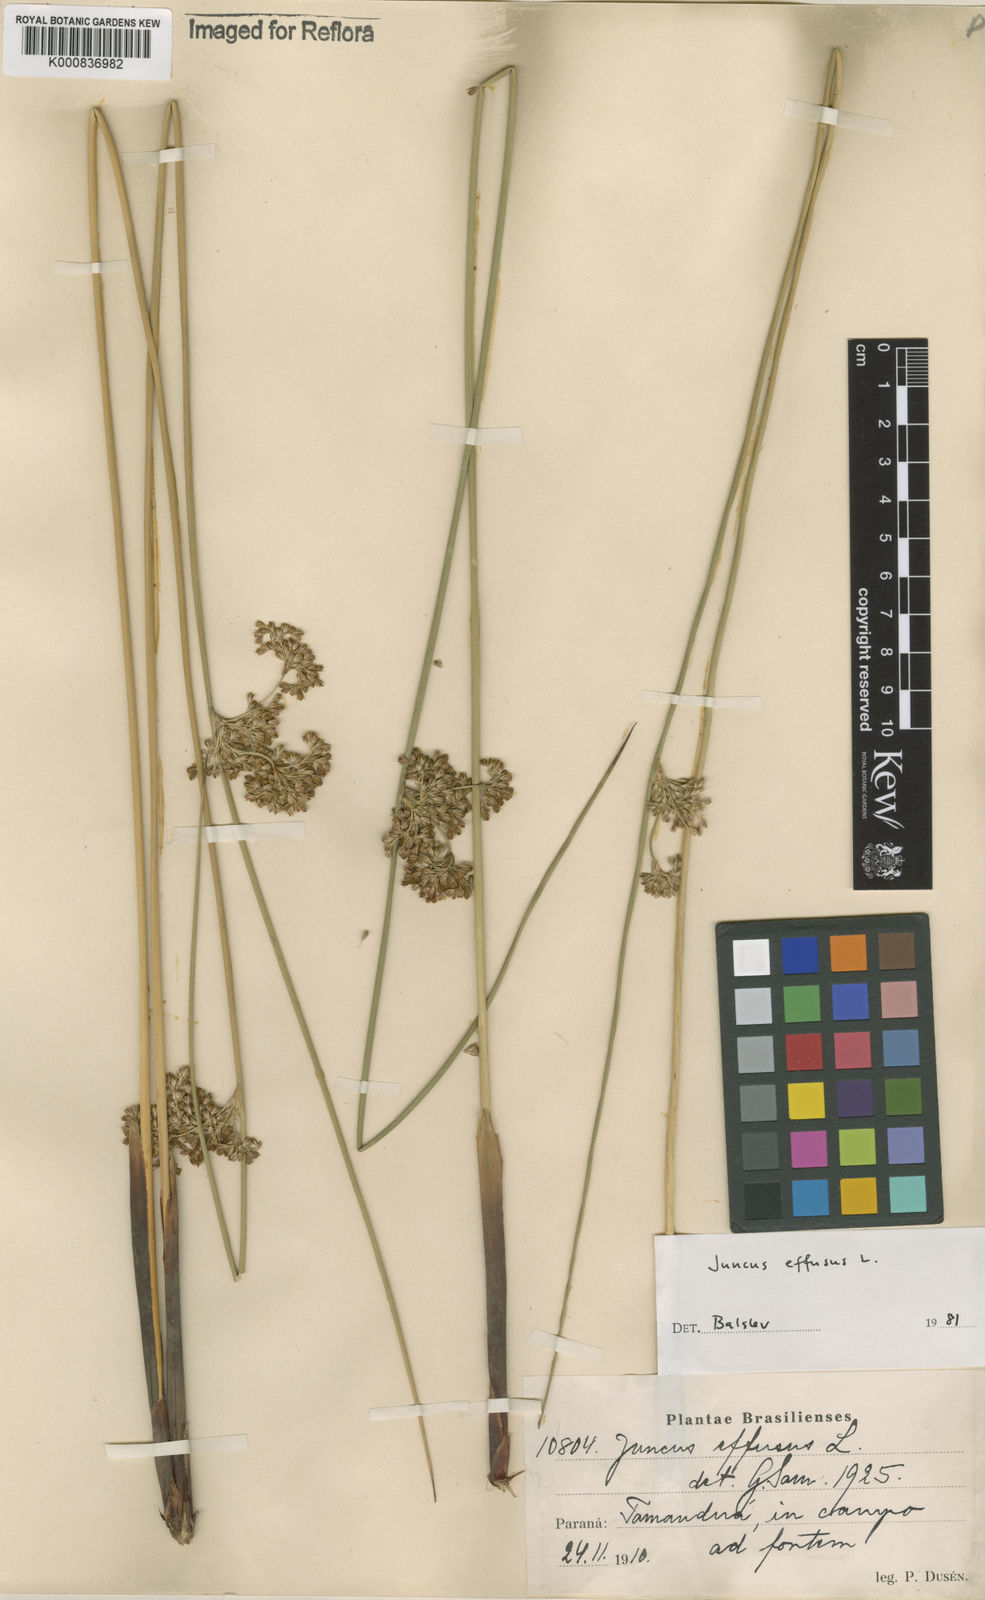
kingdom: Plantae
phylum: Tracheophyta
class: Liliopsida
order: Poales
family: Juncaceae
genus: Juncus
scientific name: Juncus effusus
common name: Soft rush
